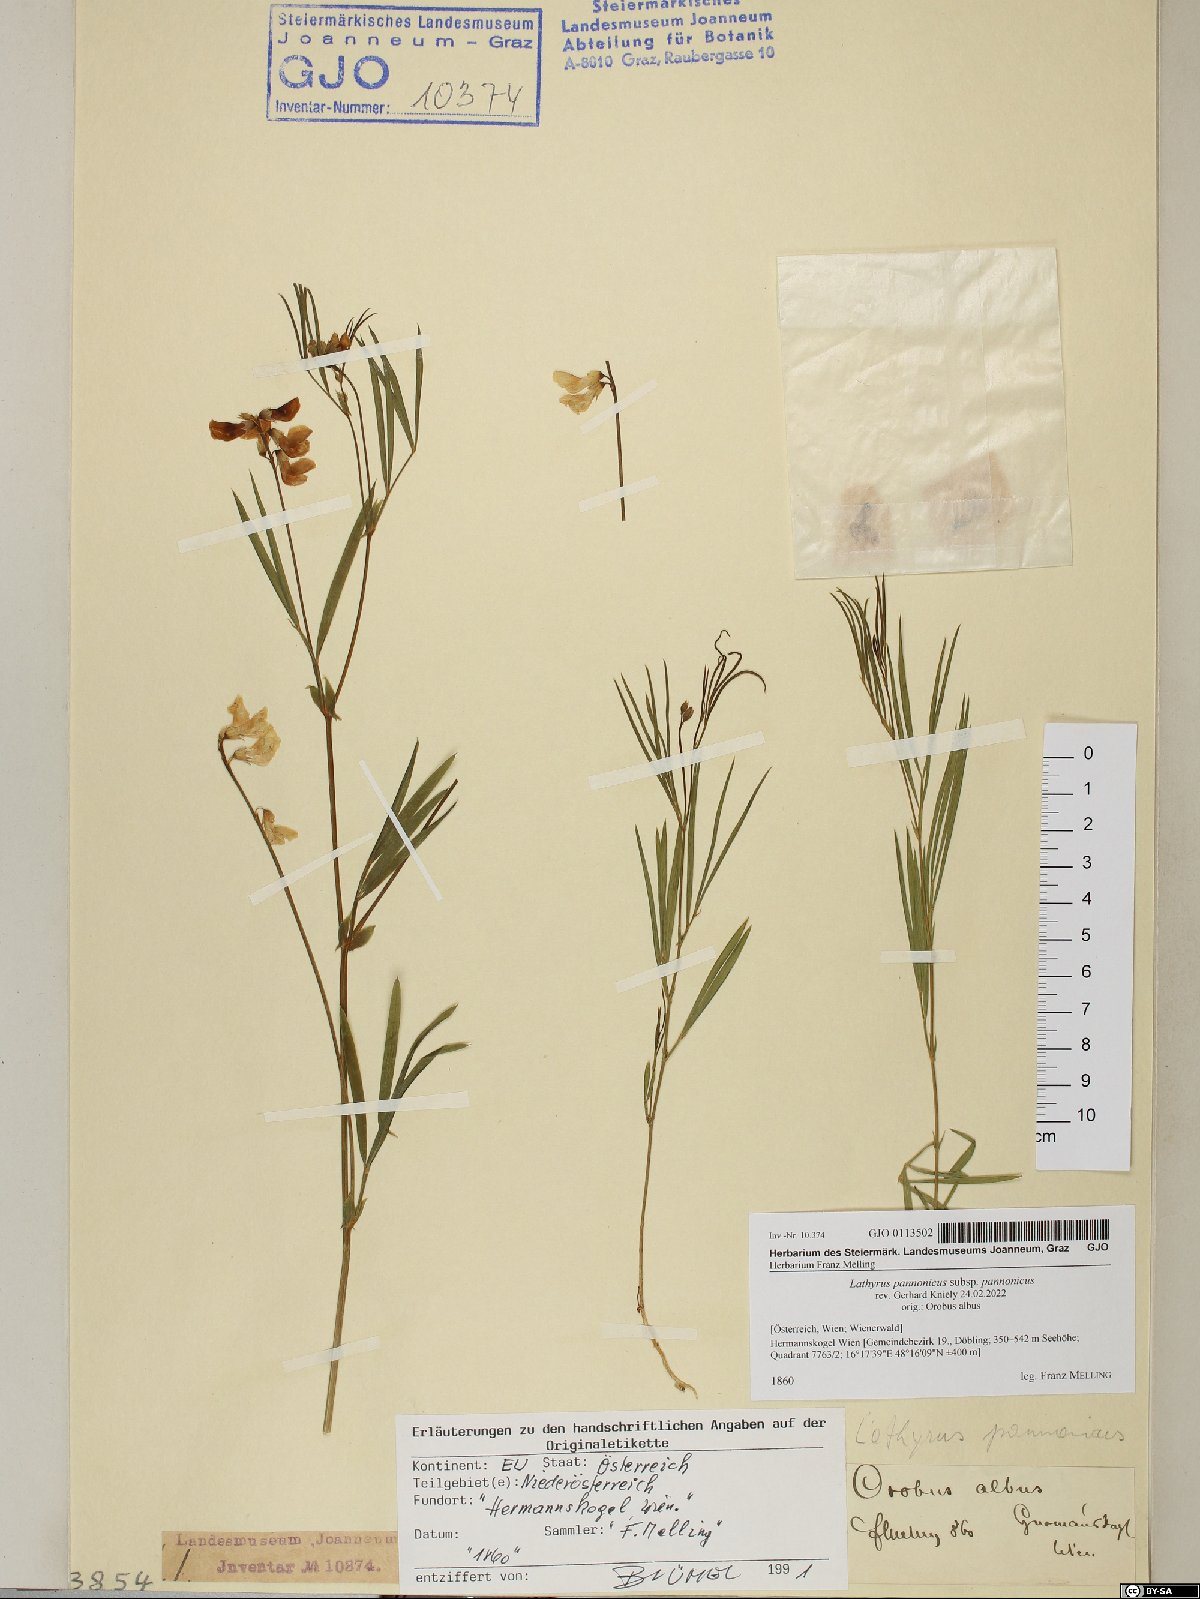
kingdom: Plantae
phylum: Tracheophyta
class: Magnoliopsida
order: Fabales
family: Fabaceae
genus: Lathyrus
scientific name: Lathyrus pannonicus
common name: Pea
